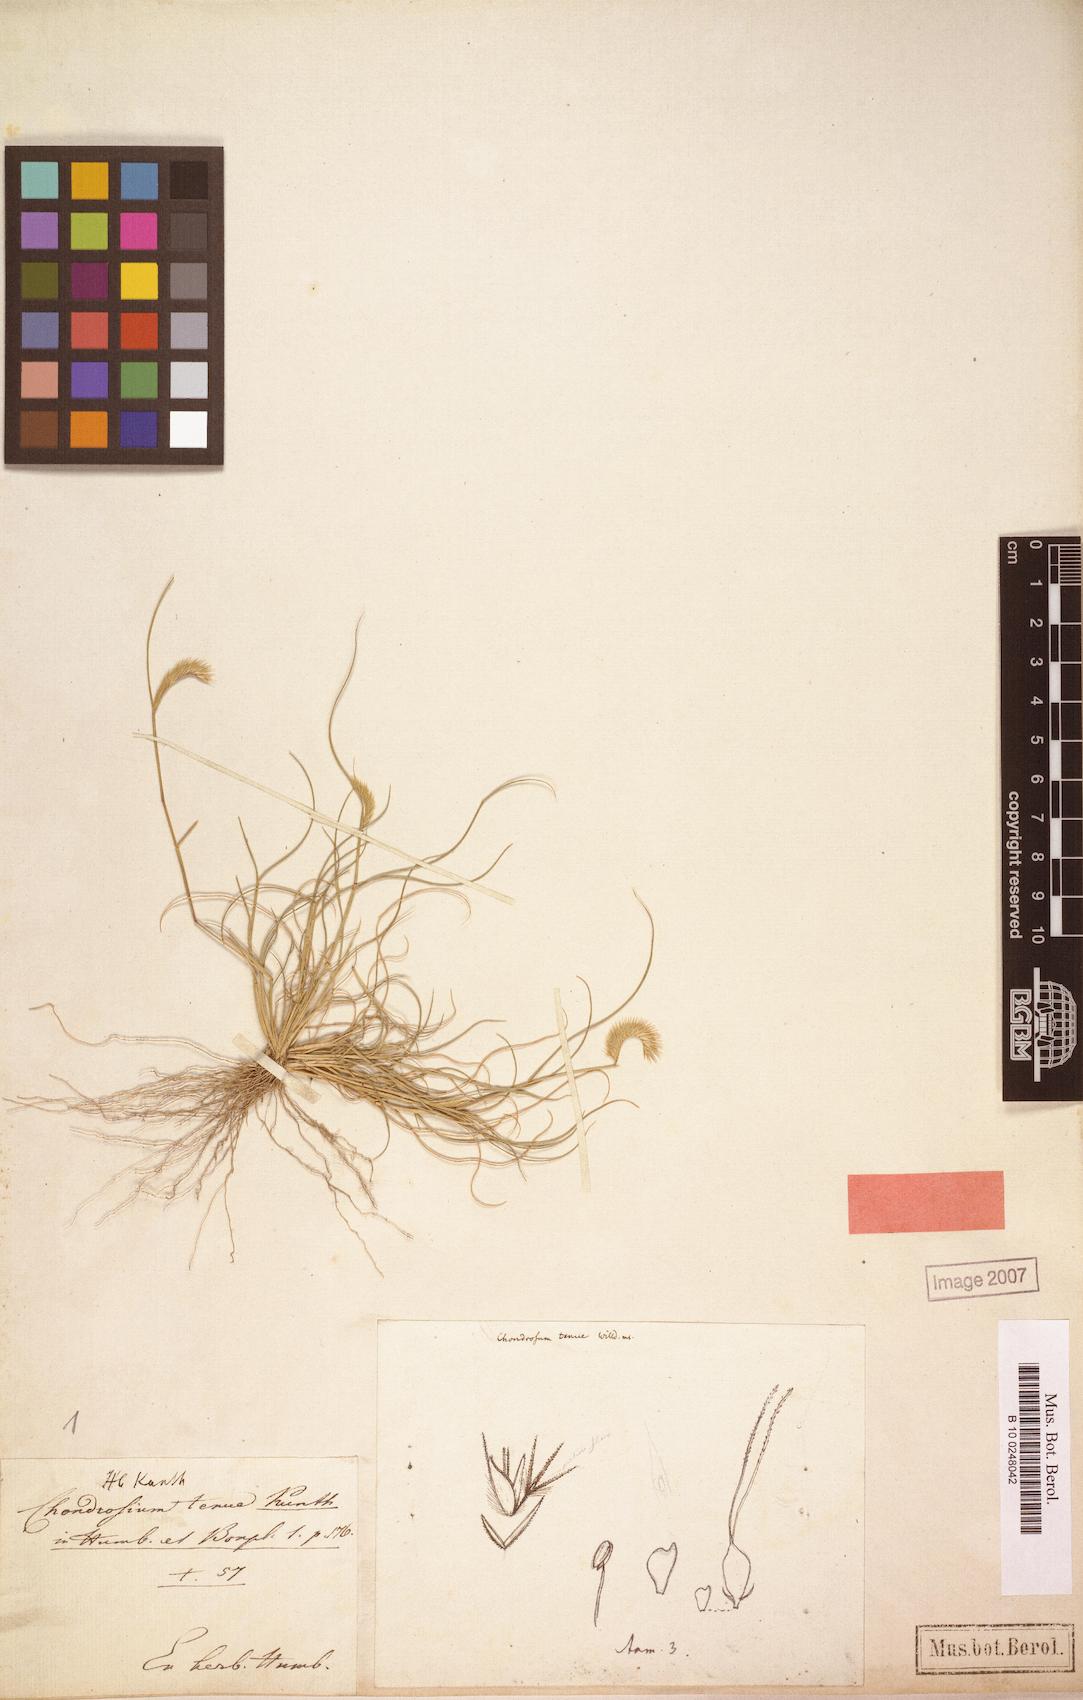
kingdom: Plantae
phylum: Tracheophyta
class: Liliopsida
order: Poales
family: Poaceae
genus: Bouteloua
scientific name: Bouteloua simplex
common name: Mat grama
